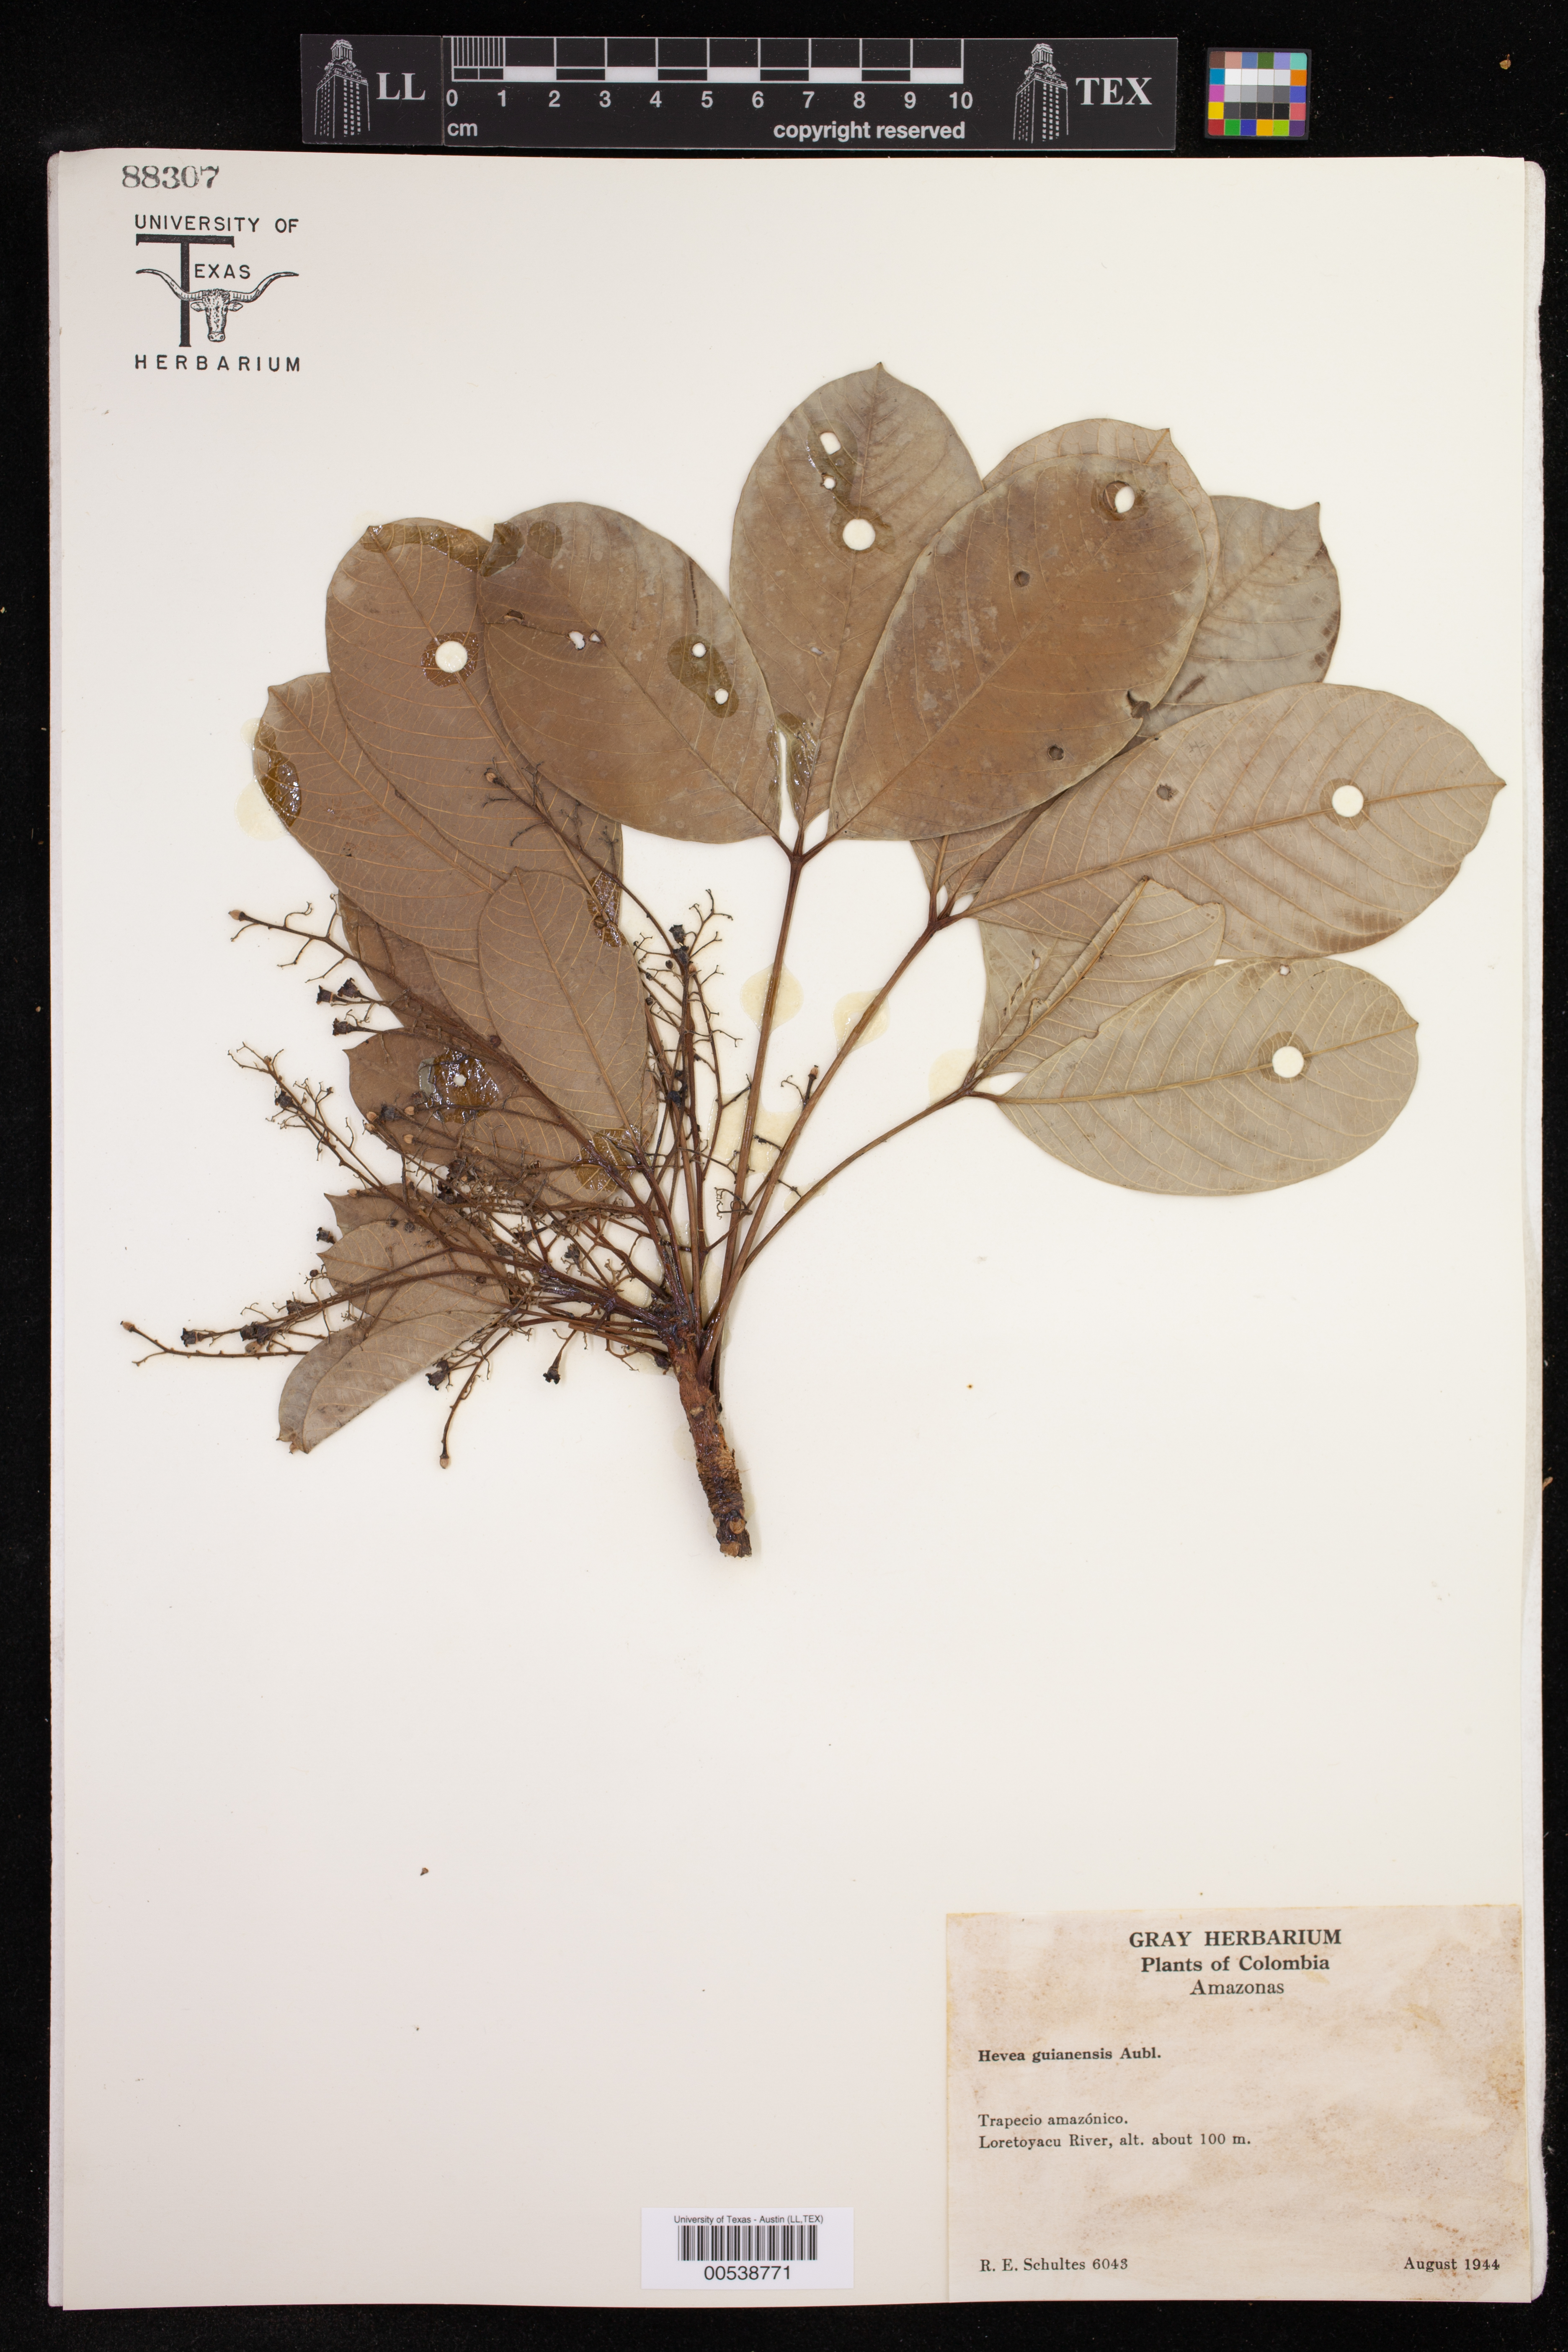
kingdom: Plantae
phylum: Tracheophyta
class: Magnoliopsida
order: Malpighiales
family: Euphorbiaceae
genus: Hevea
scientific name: Hevea guianensis
